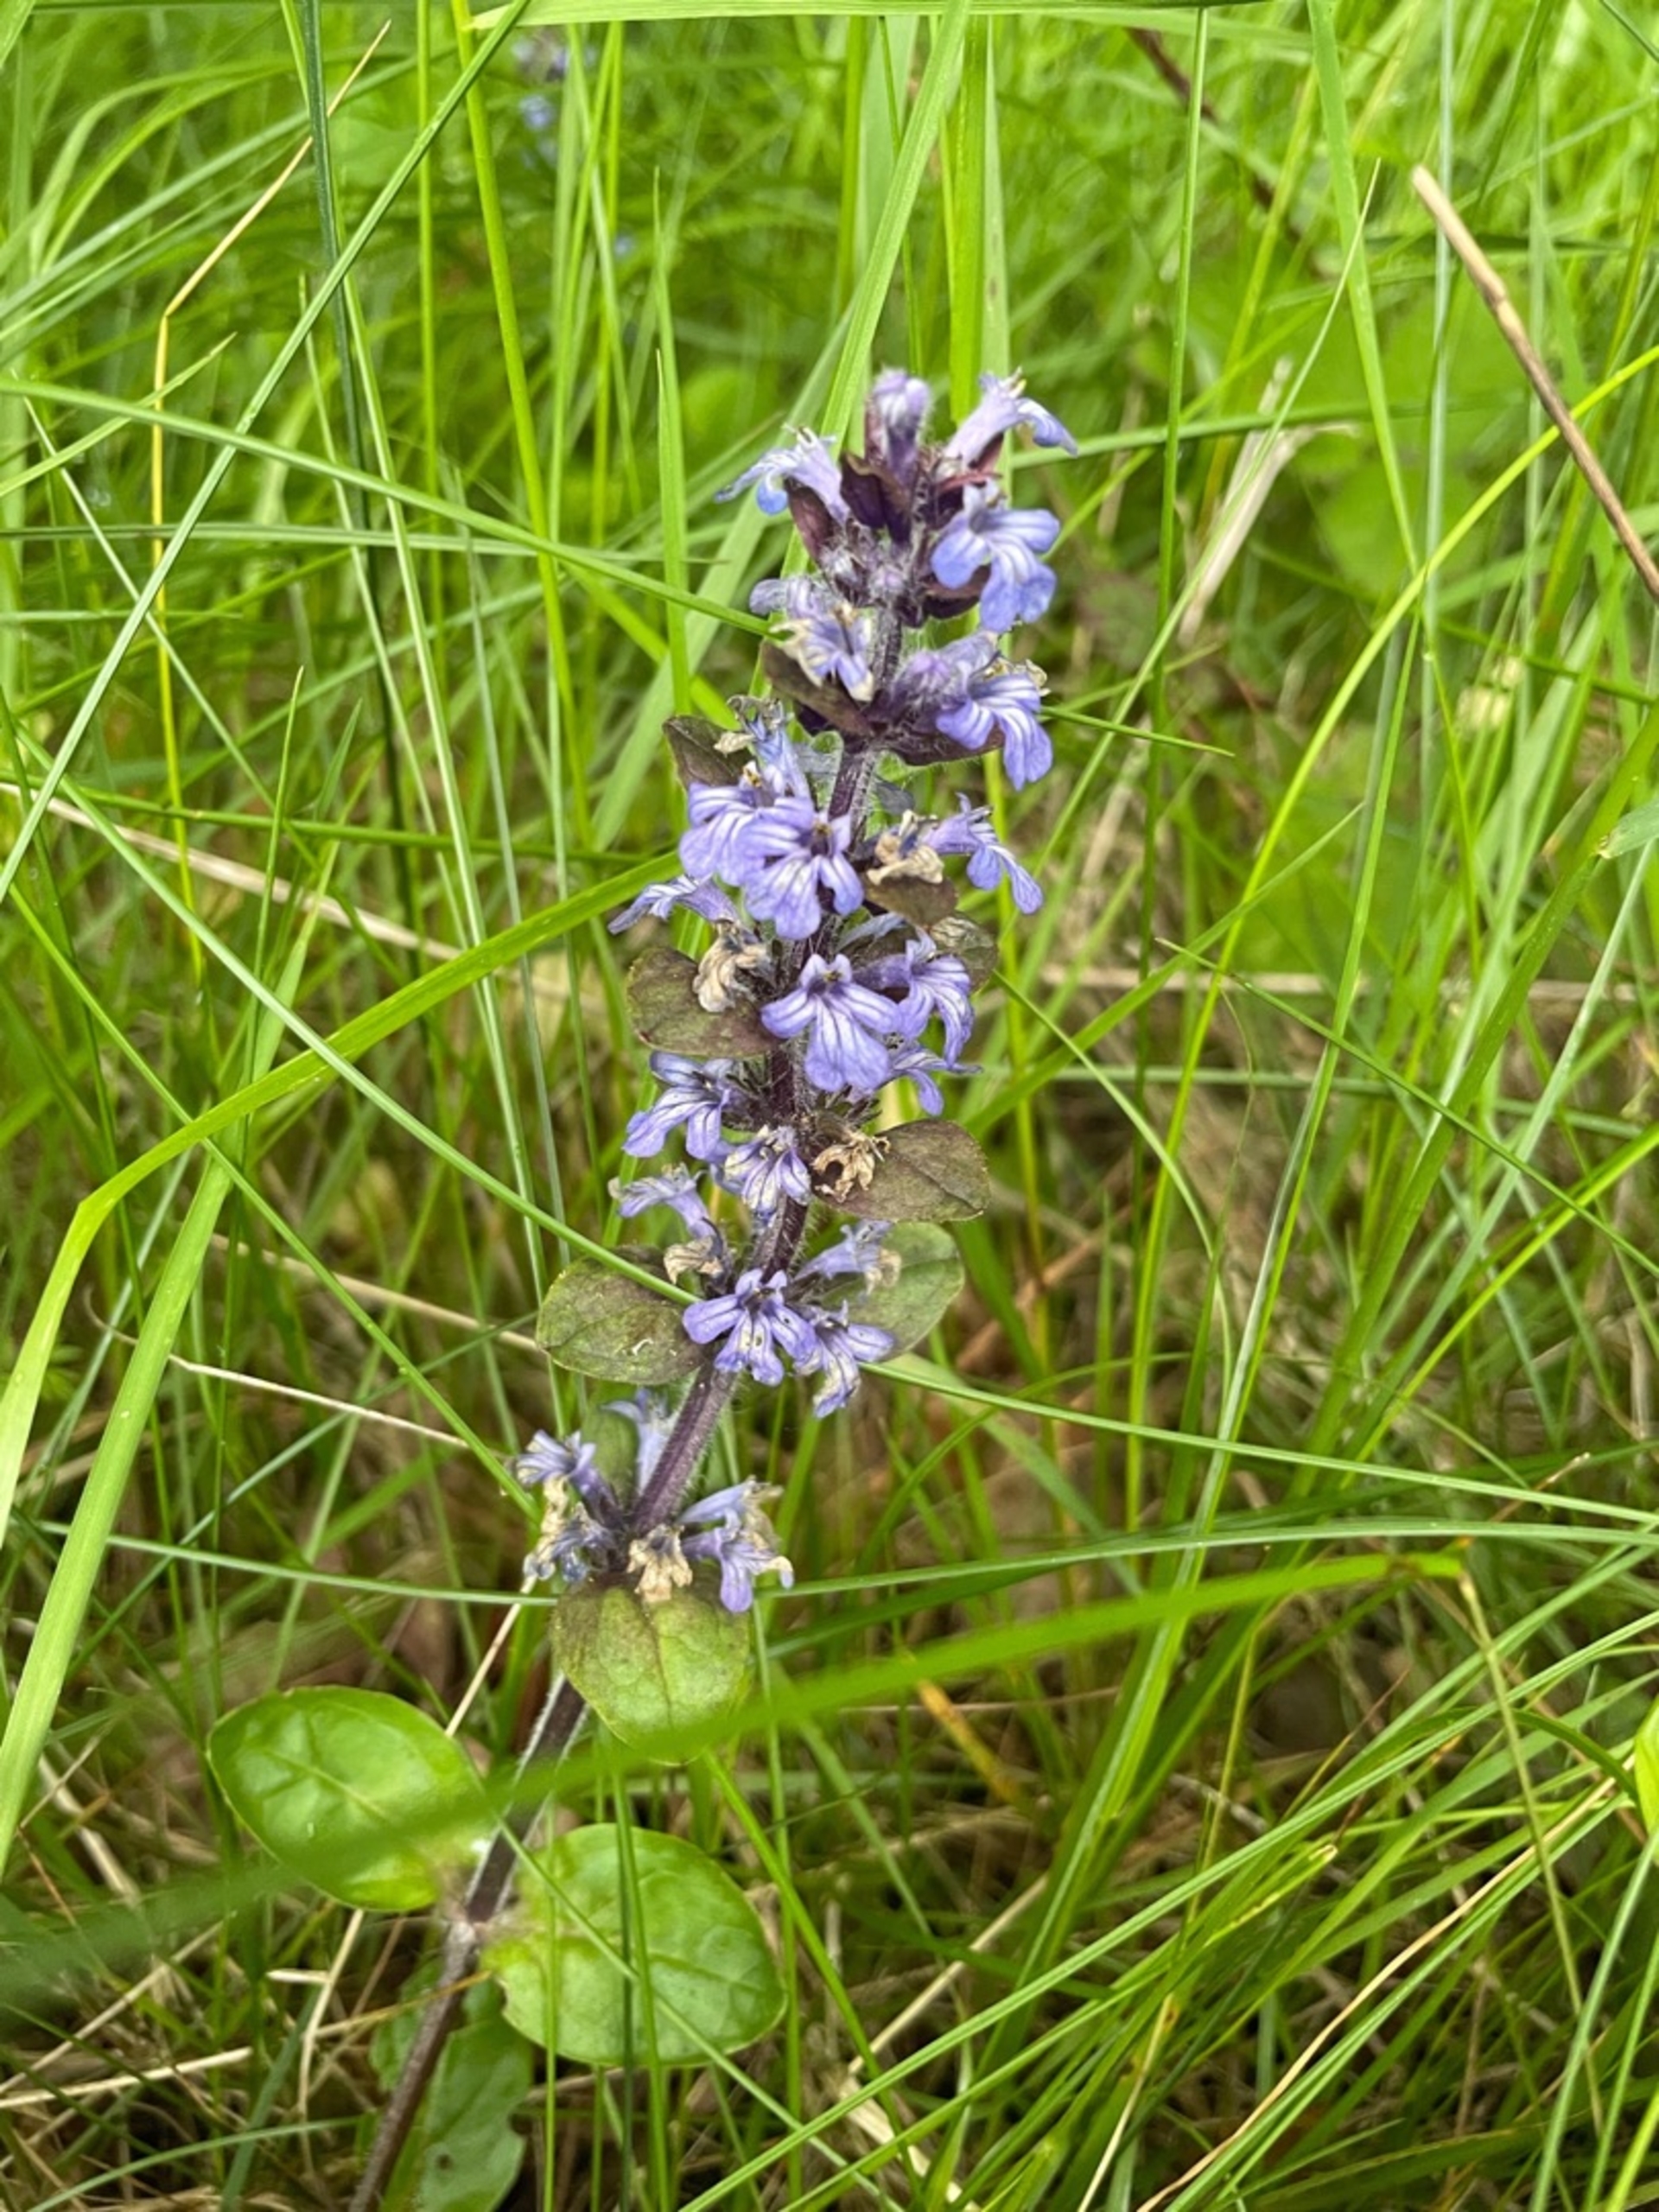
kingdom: Plantae
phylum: Tracheophyta
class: Magnoliopsida
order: Lamiales
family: Lamiaceae
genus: Ajuga
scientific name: Ajuga reptans
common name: Krybende læbeløs
